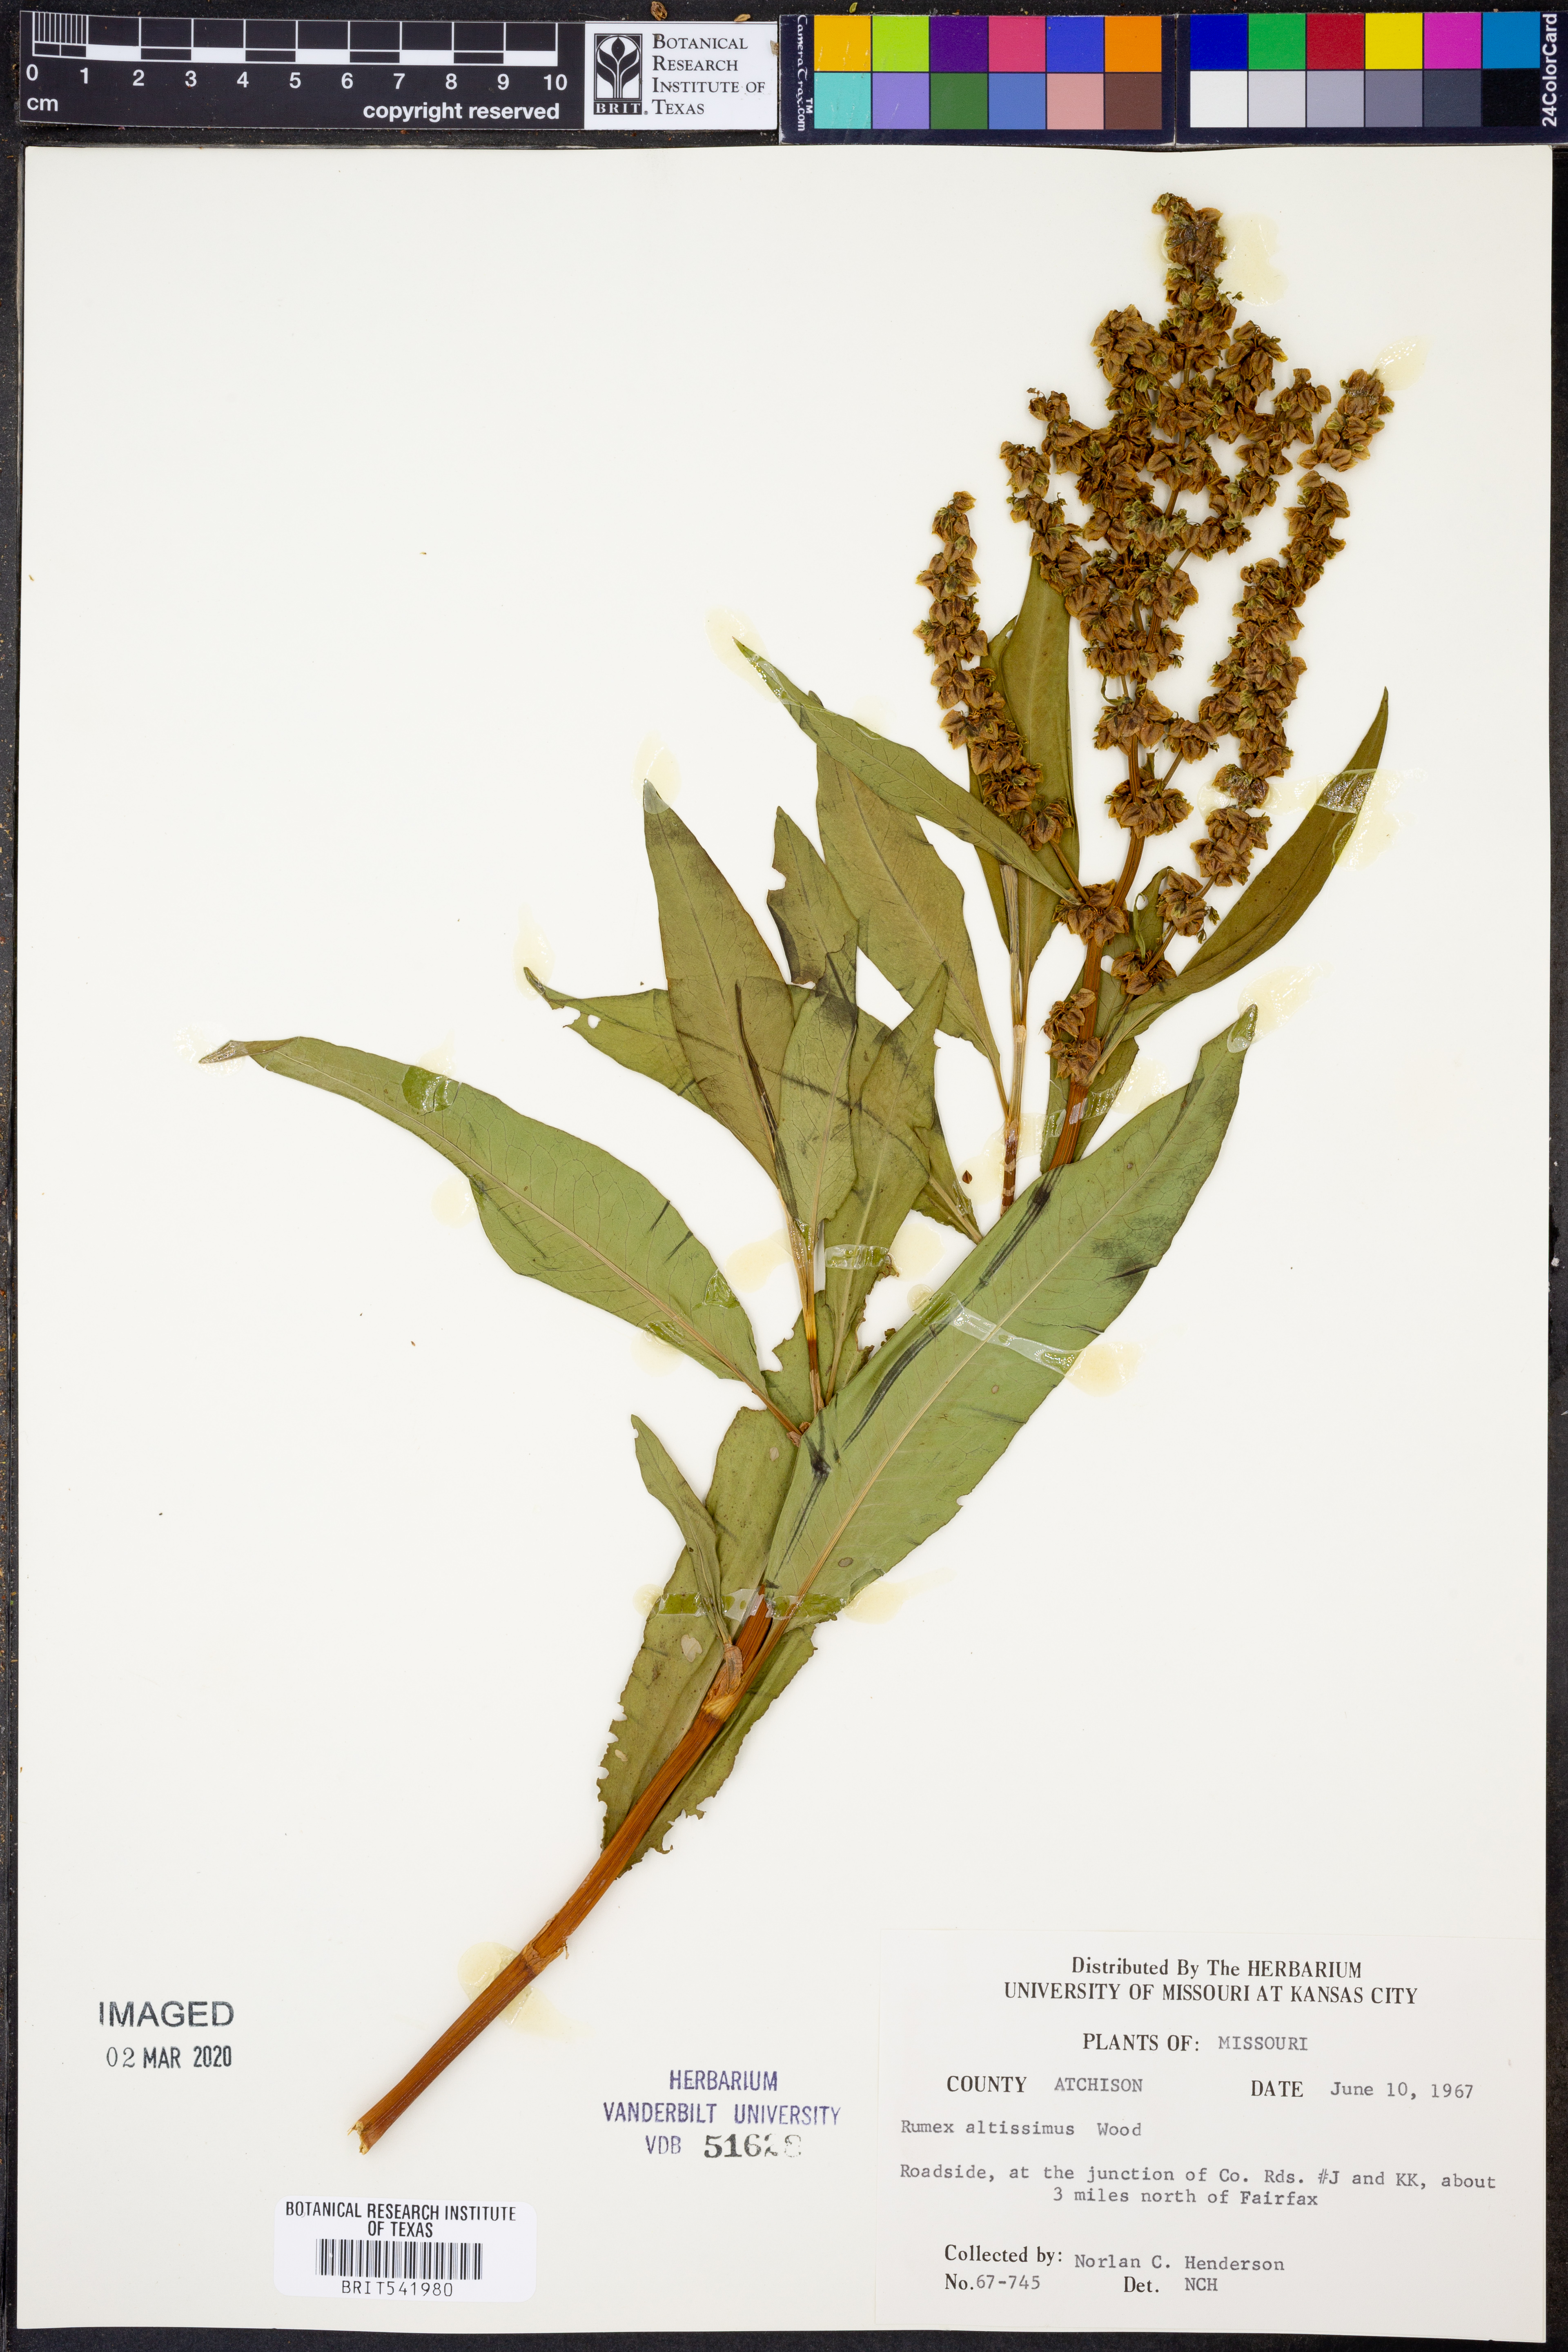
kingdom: Plantae
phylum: Tracheophyta
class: Magnoliopsida
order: Caryophyllales
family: Polygonaceae
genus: Rumex
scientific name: Rumex altissimus
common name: Smooth dock
